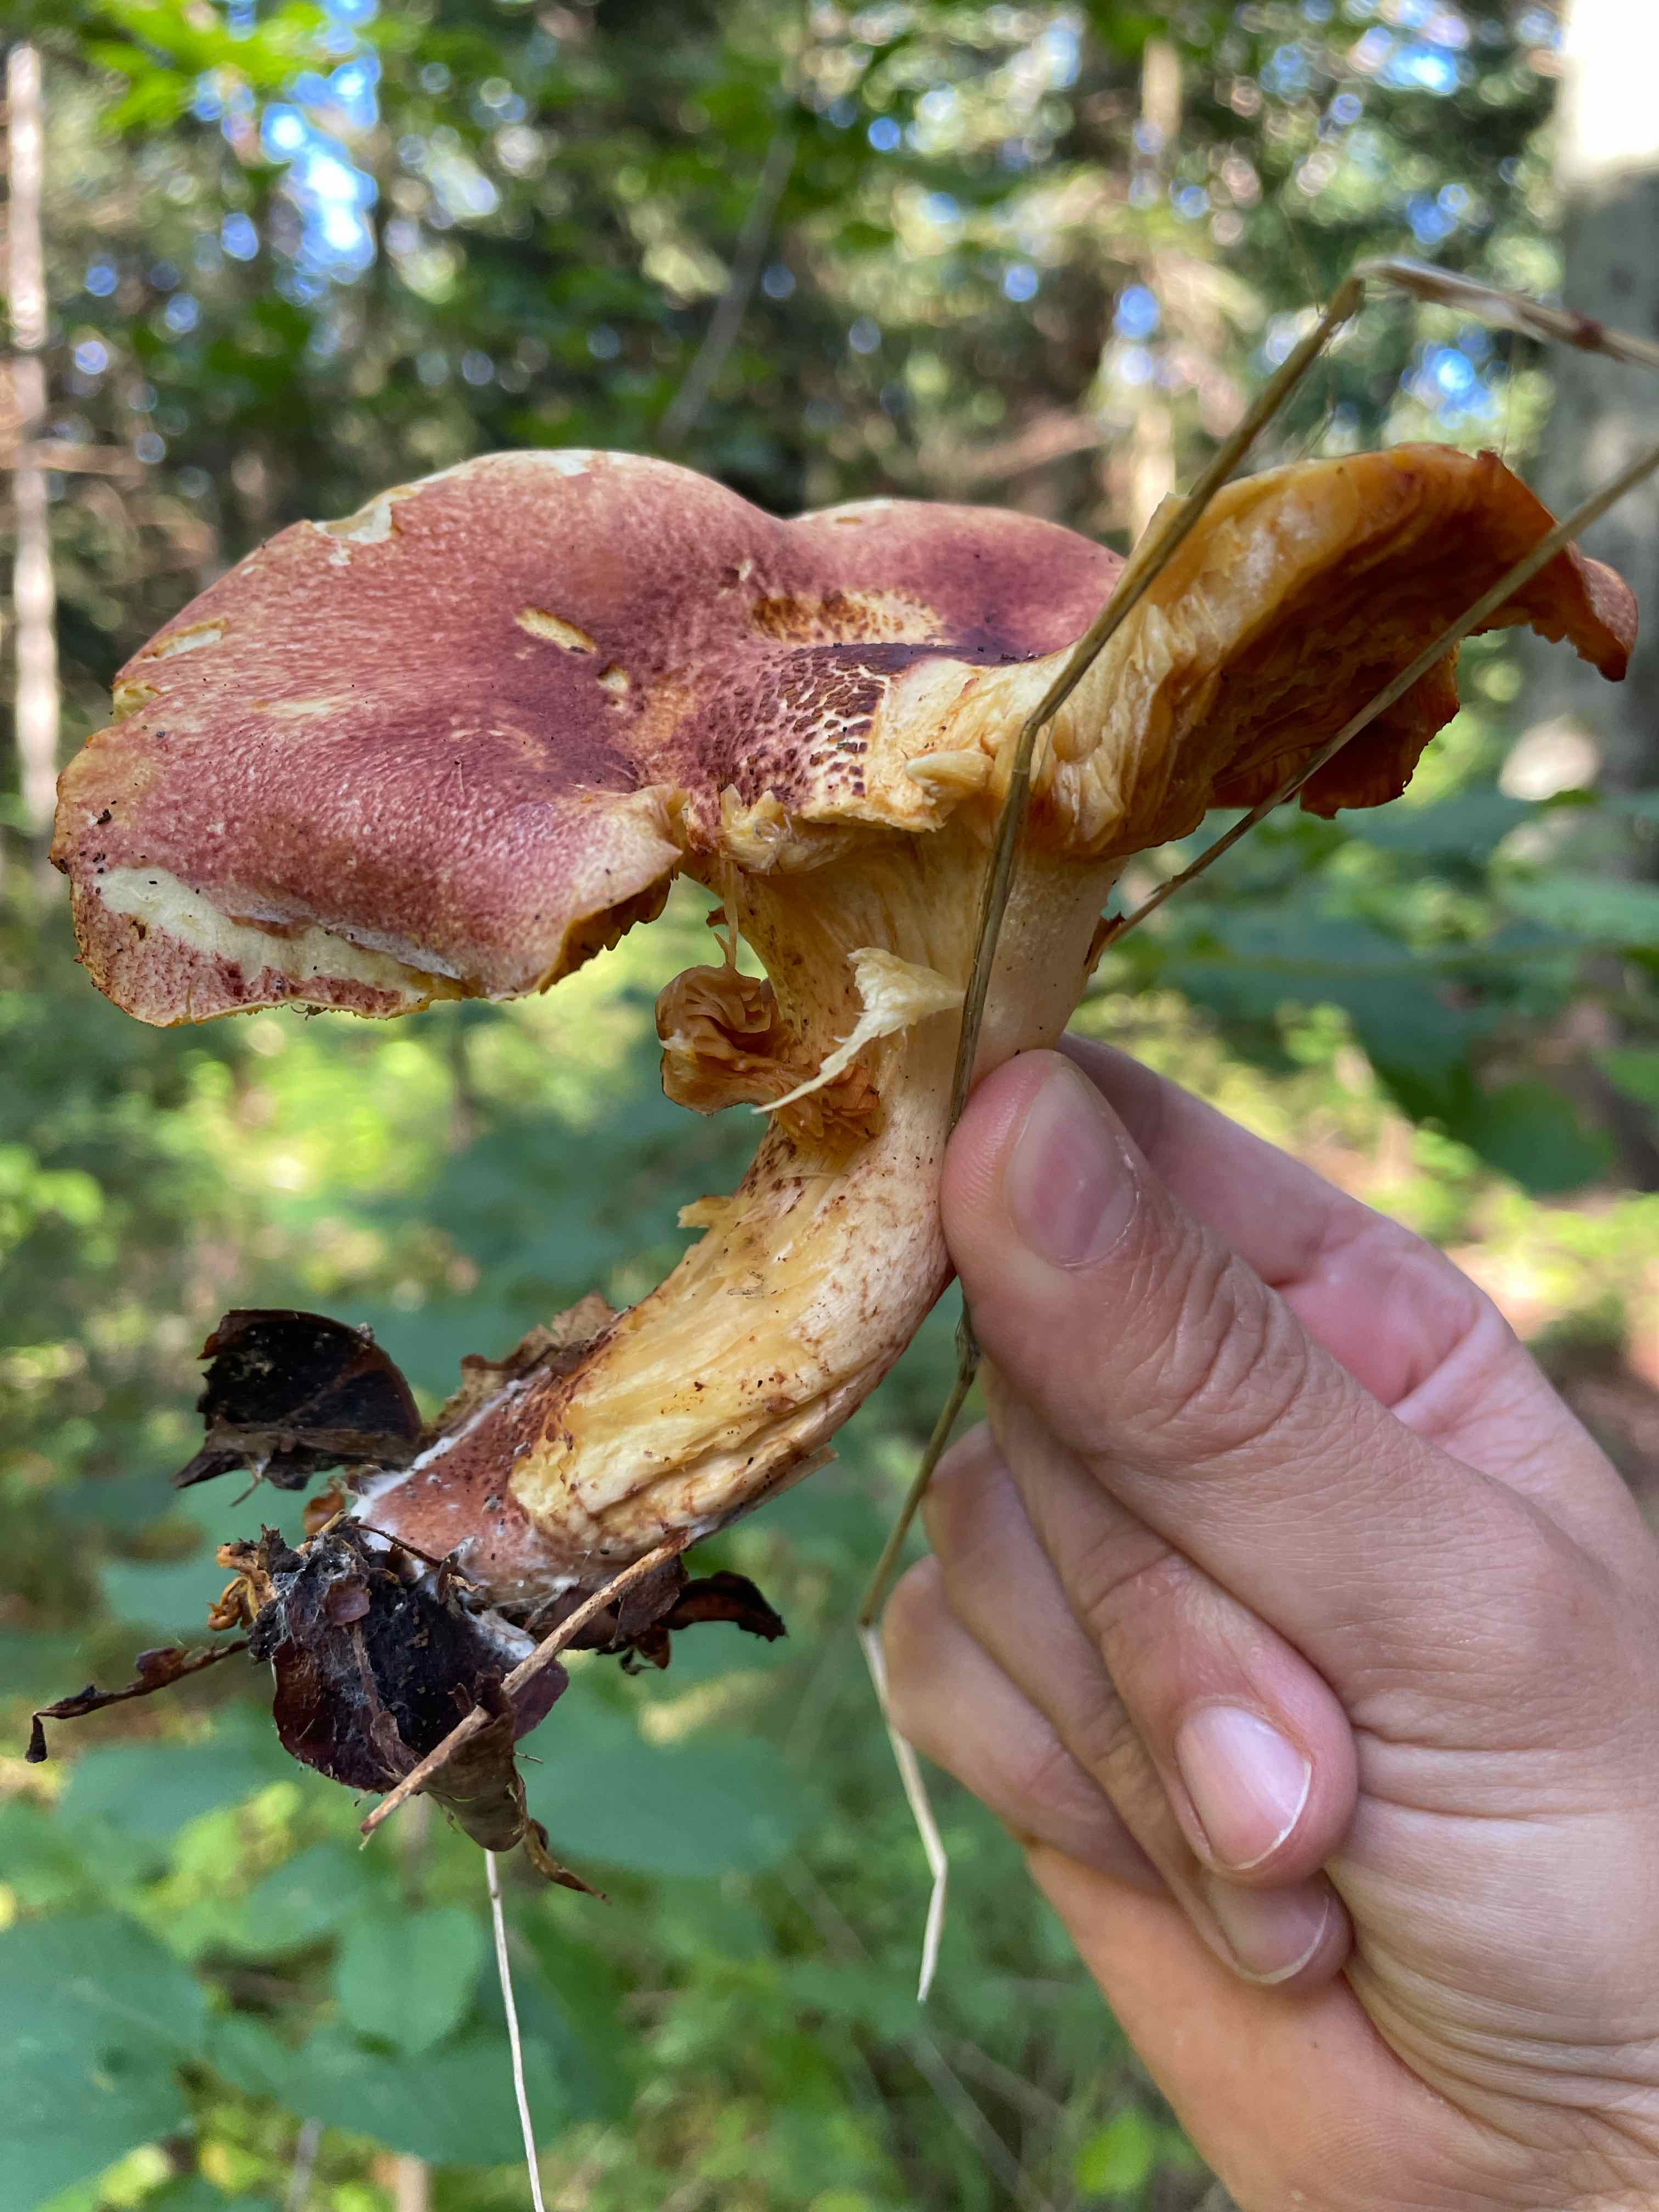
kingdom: Fungi
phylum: Basidiomycota
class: Agaricomycetes
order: Agaricales
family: Tricholomataceae
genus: Tricholomopsis
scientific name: Tricholomopsis rutilans
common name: purpur-væbnerhat
